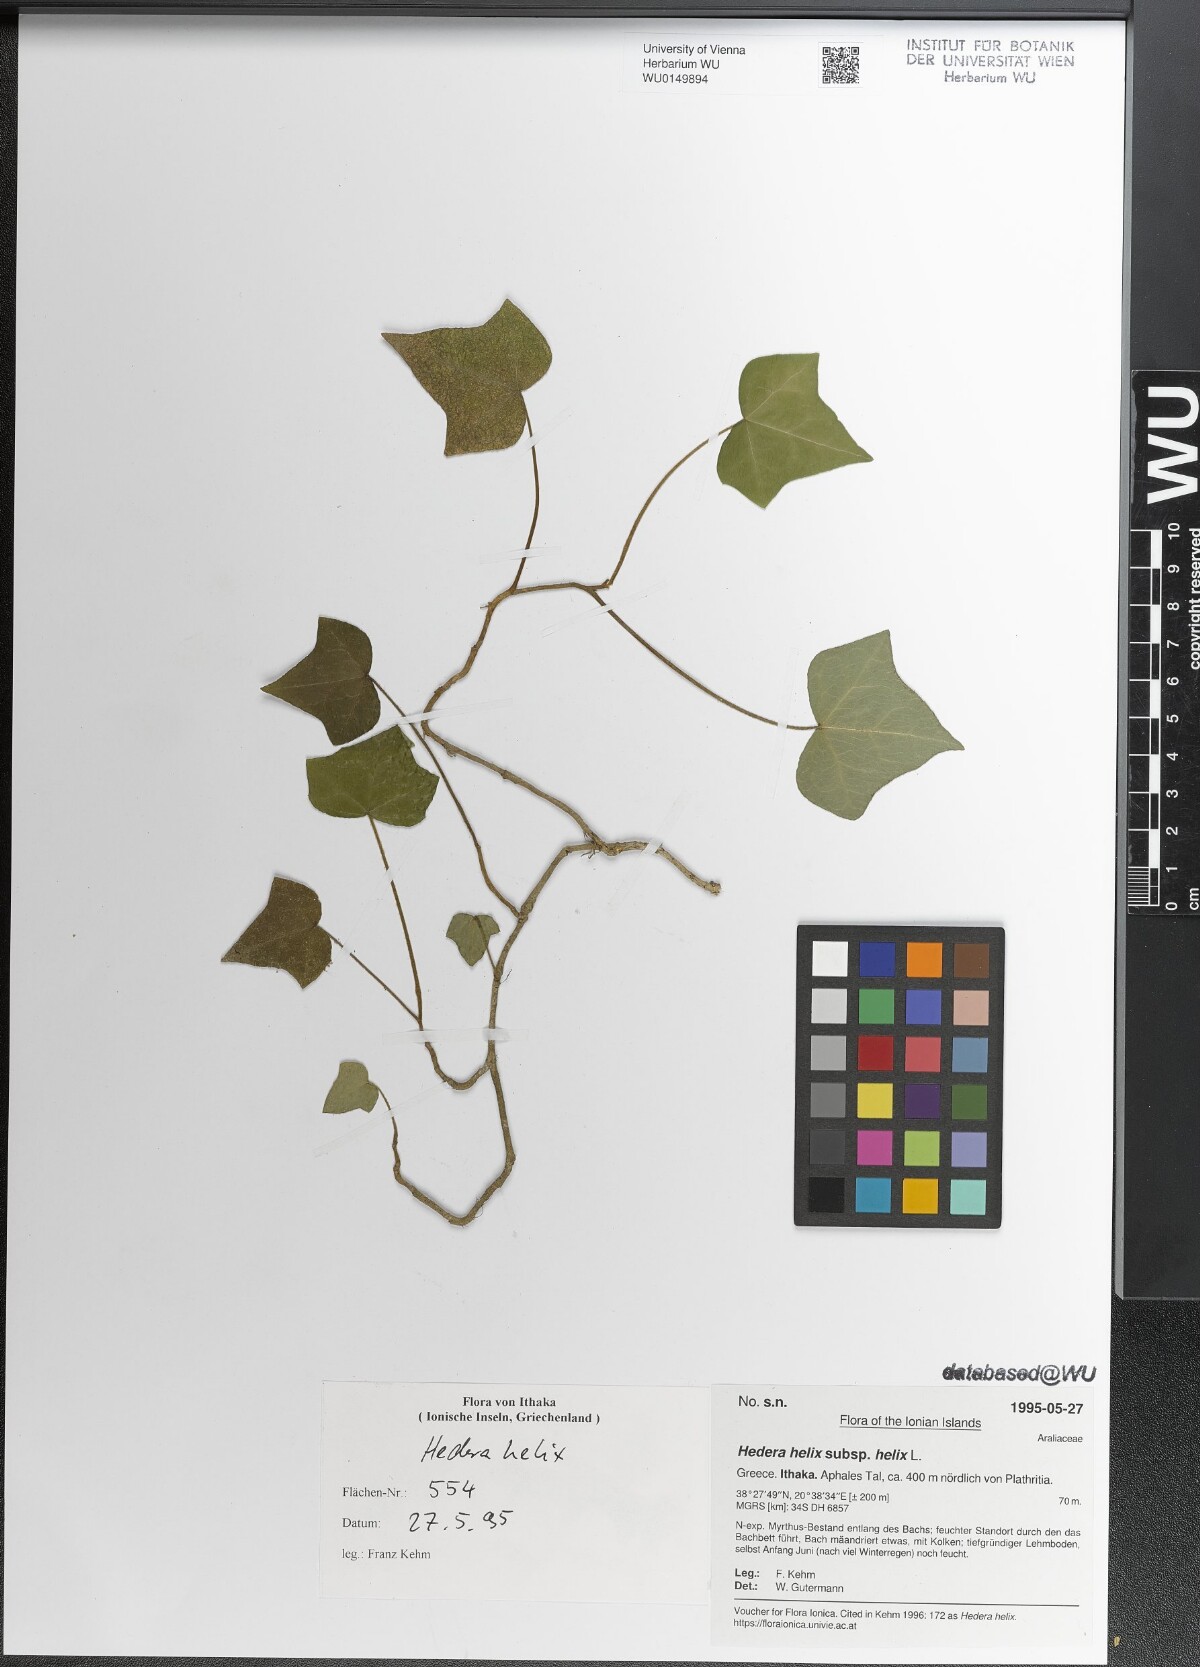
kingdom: Plantae
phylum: Tracheophyta
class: Magnoliopsida
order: Apiales
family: Araliaceae
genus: Hedera
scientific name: Hedera helix
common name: Ivy
